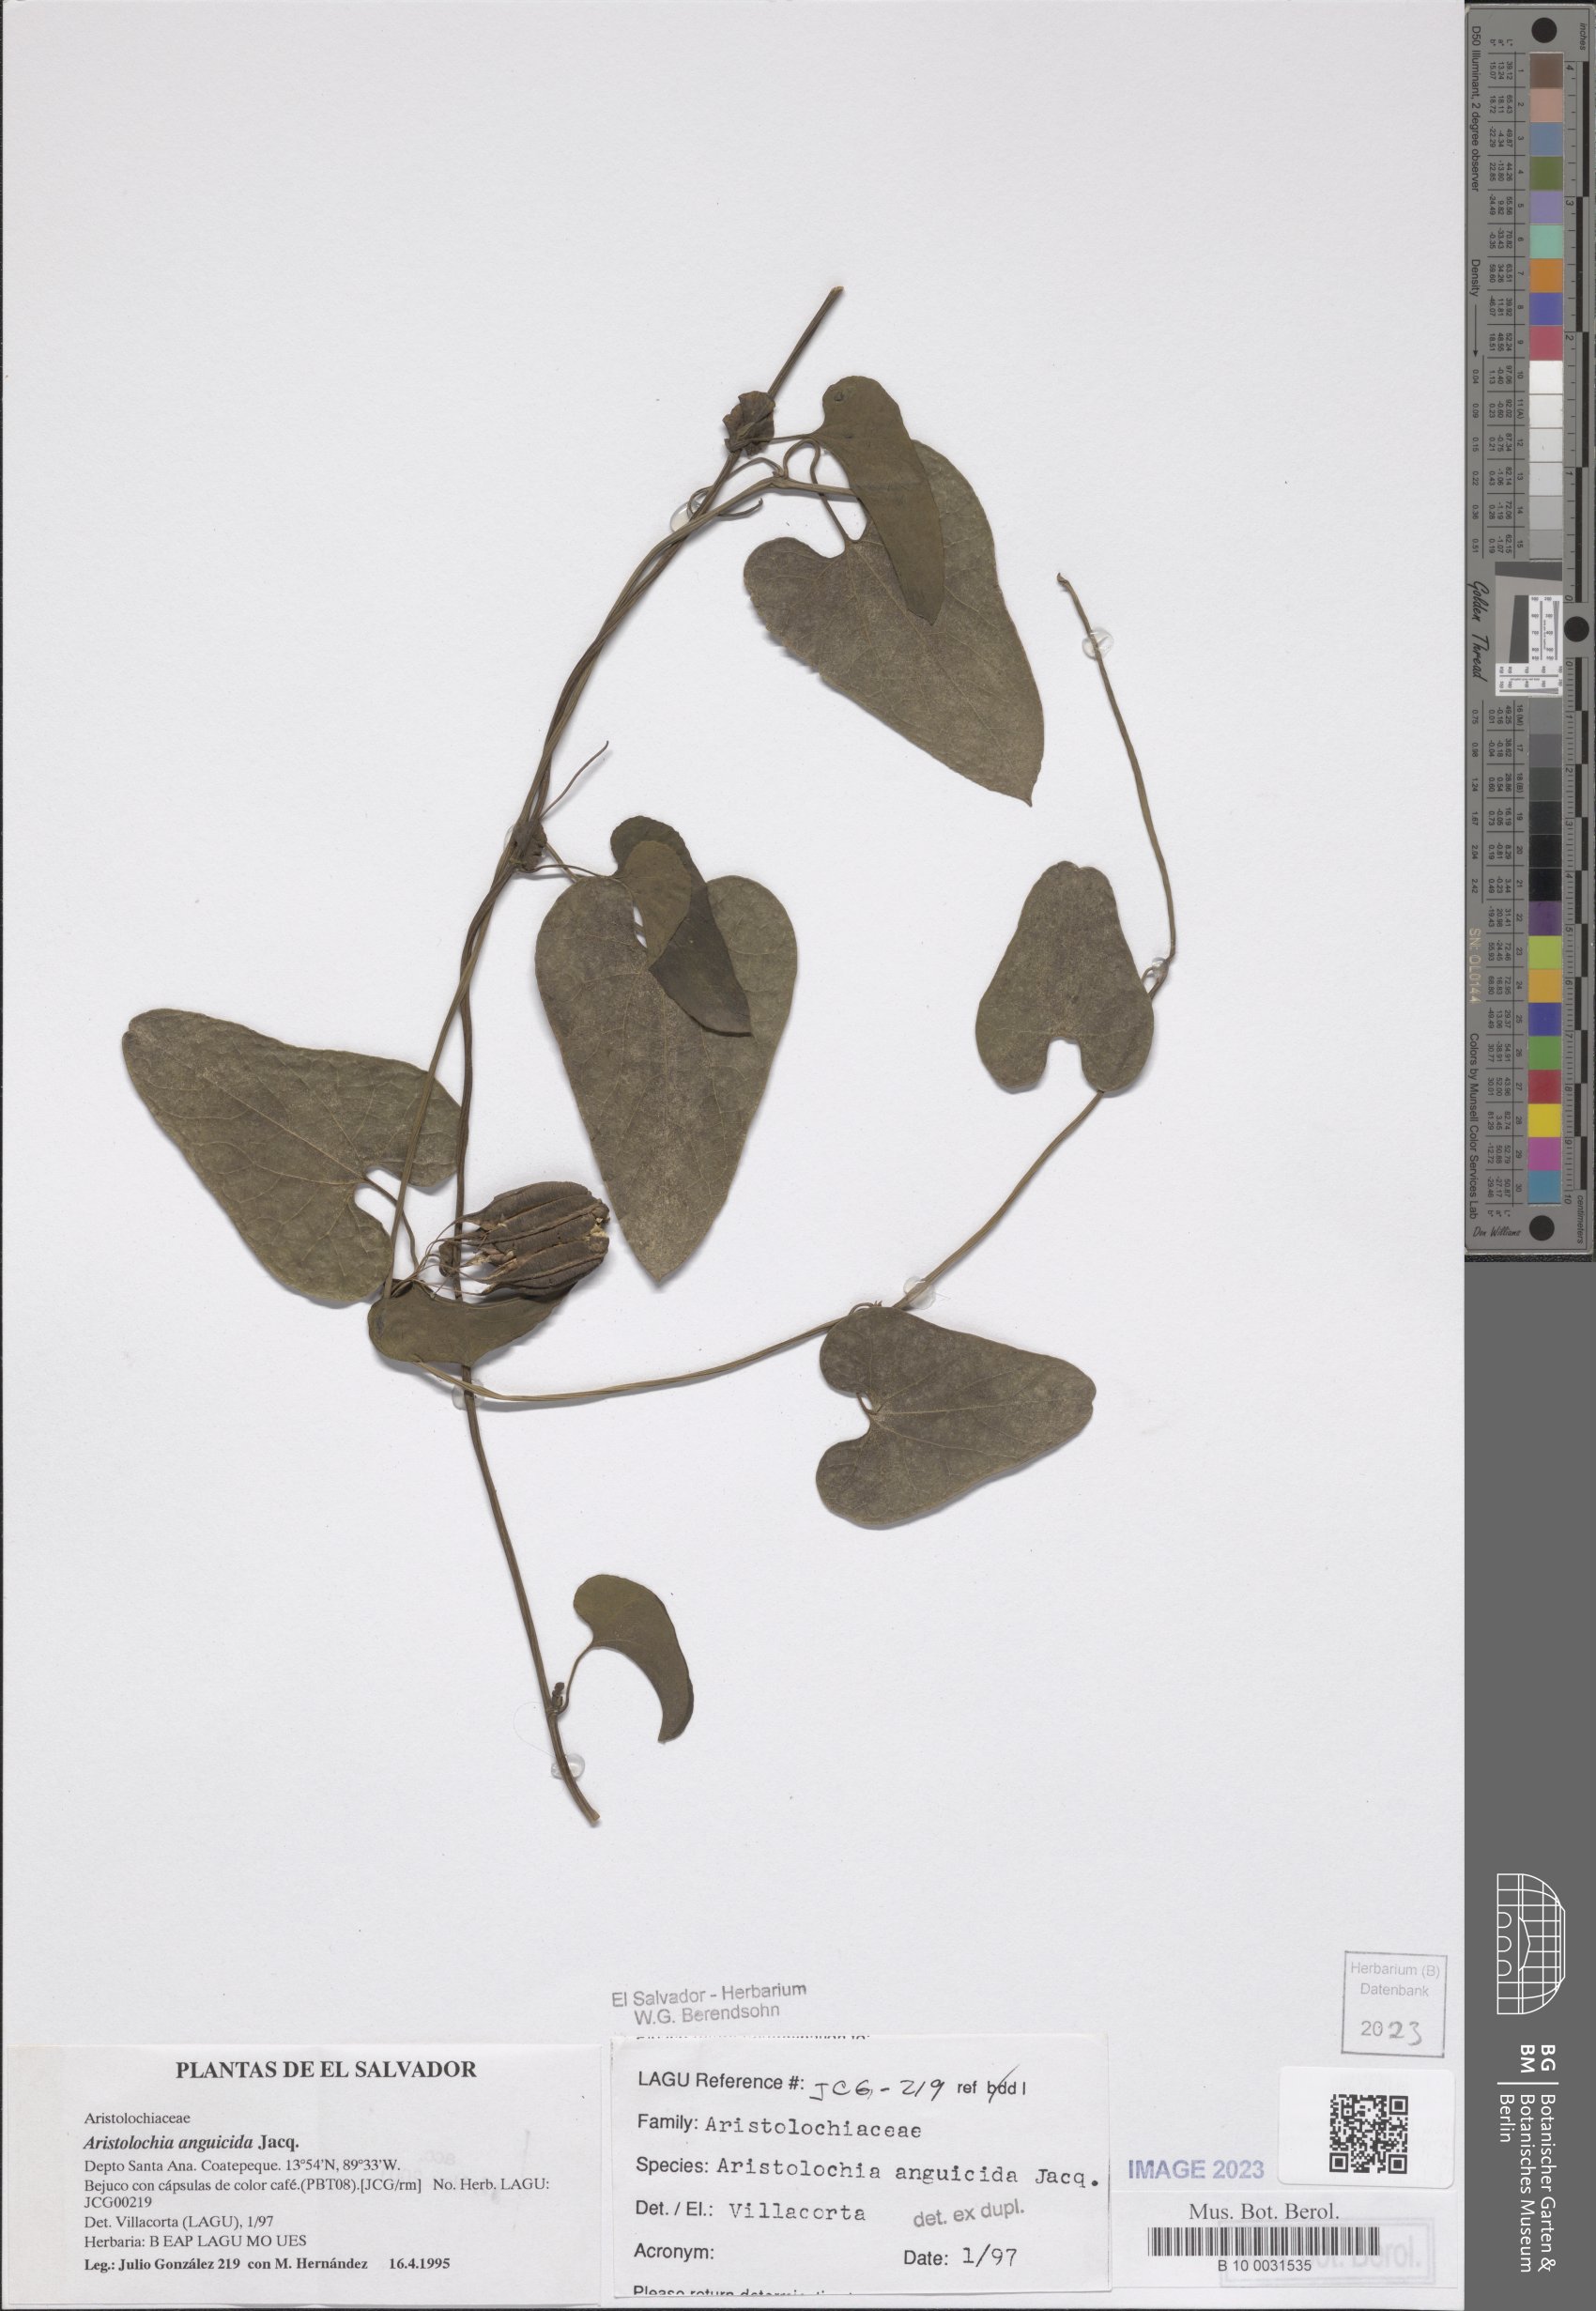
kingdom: Plantae
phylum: Tracheophyta
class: Magnoliopsida
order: Piperales
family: Aristolochiaceae
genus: Aristolochia
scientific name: Aristolochia anguicida
